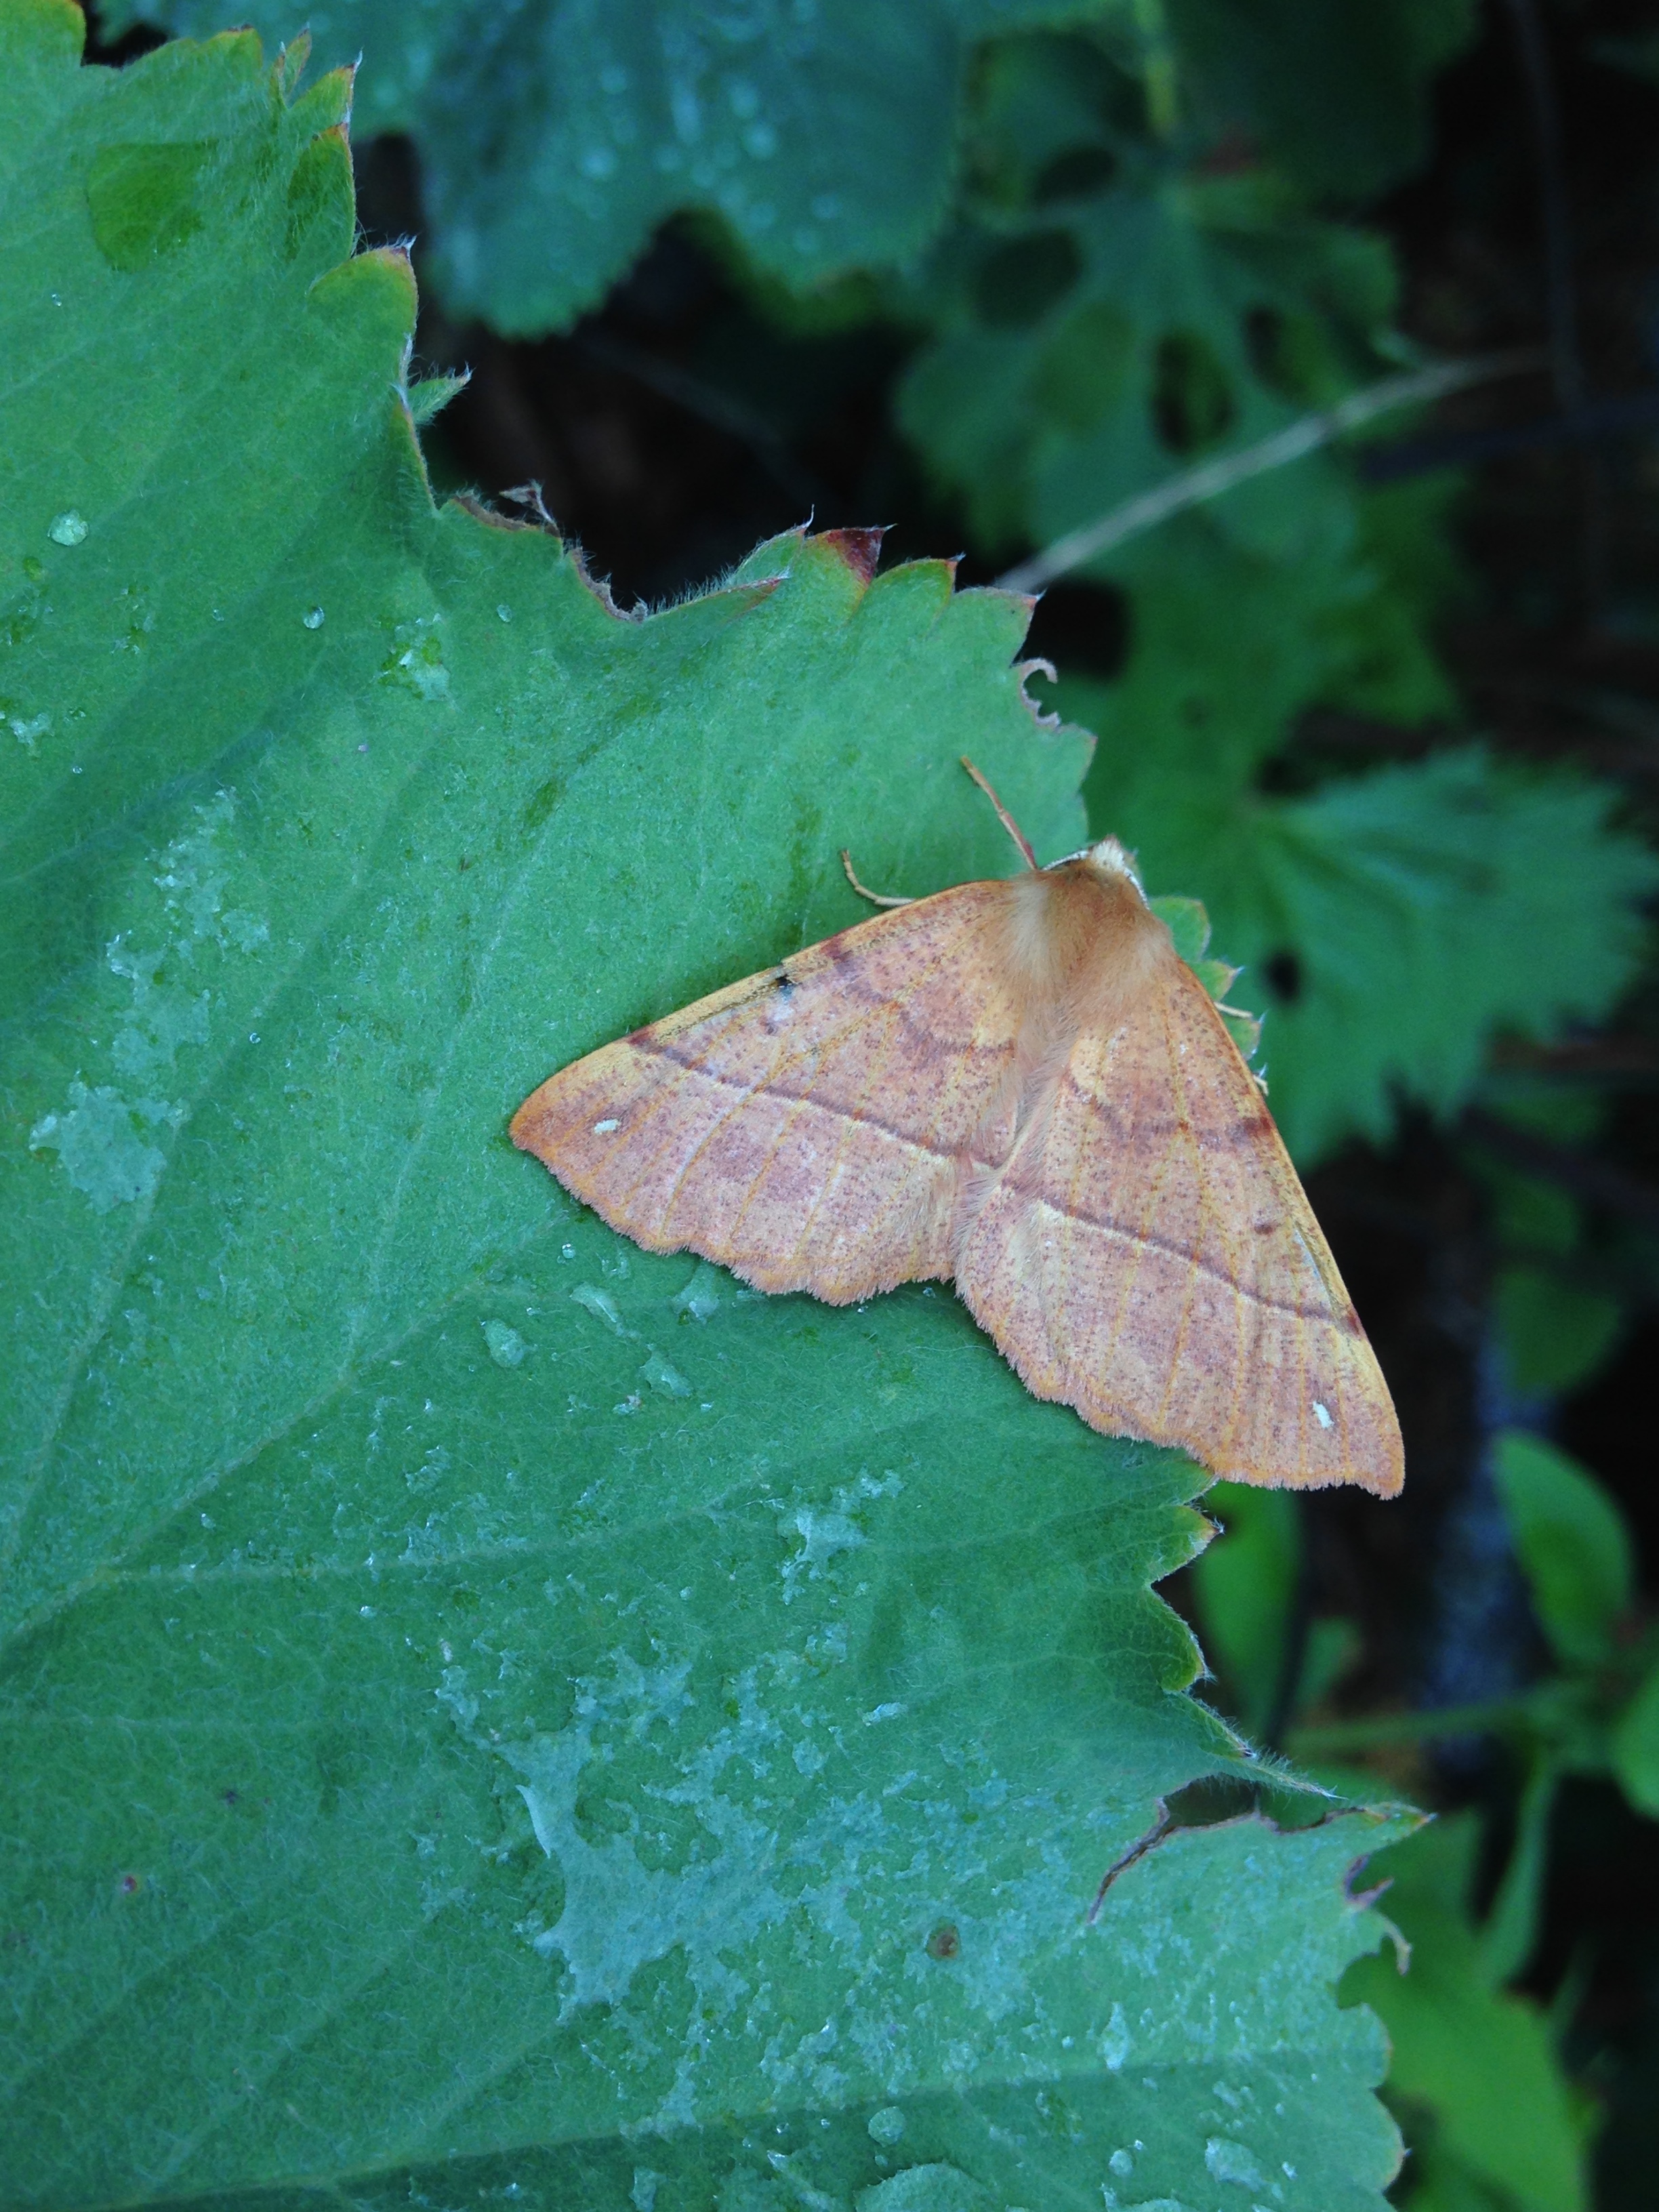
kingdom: Animalia
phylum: Arthropoda
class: Insecta
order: Lepidoptera
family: Geometridae
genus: Colotois
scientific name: Colotois pennaria
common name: Feathered thorn
